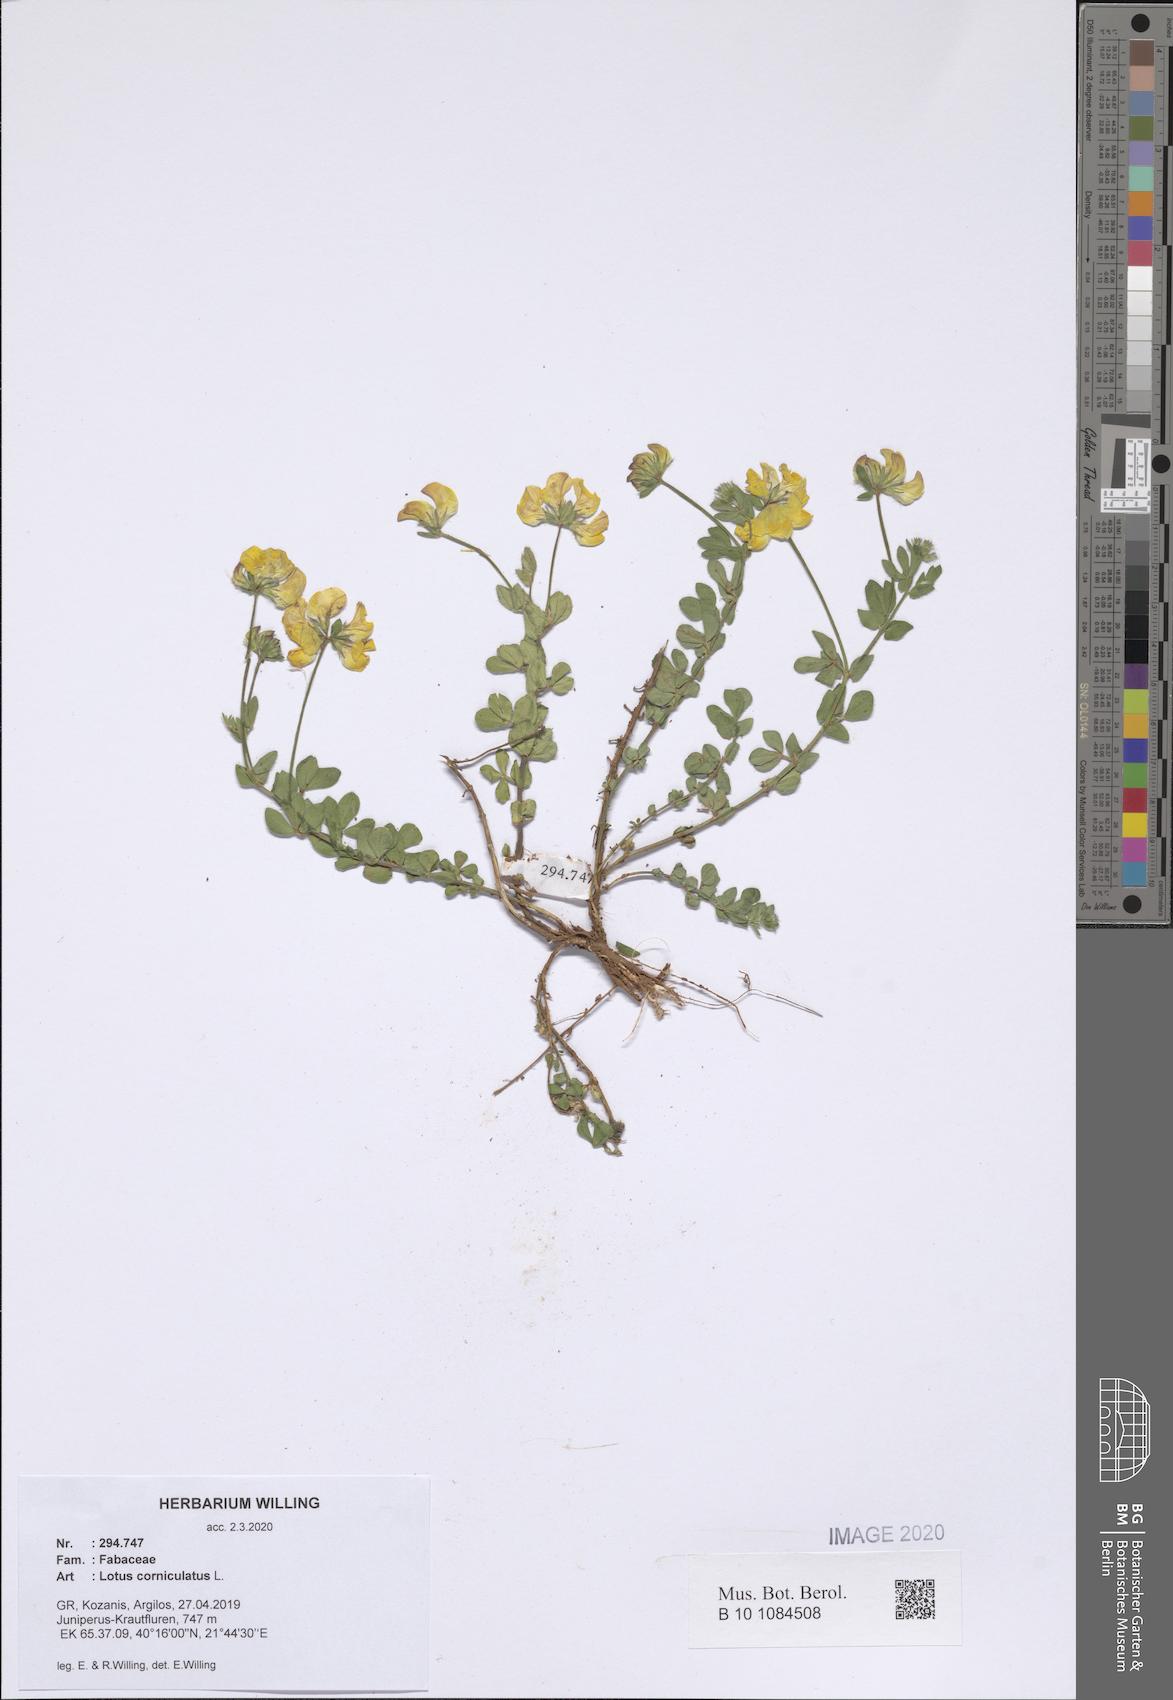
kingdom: Plantae
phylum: Tracheophyta
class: Magnoliopsida
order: Fabales
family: Fabaceae
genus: Lotus
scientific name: Lotus corniculatus
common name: Common bird's-foot-trefoil
